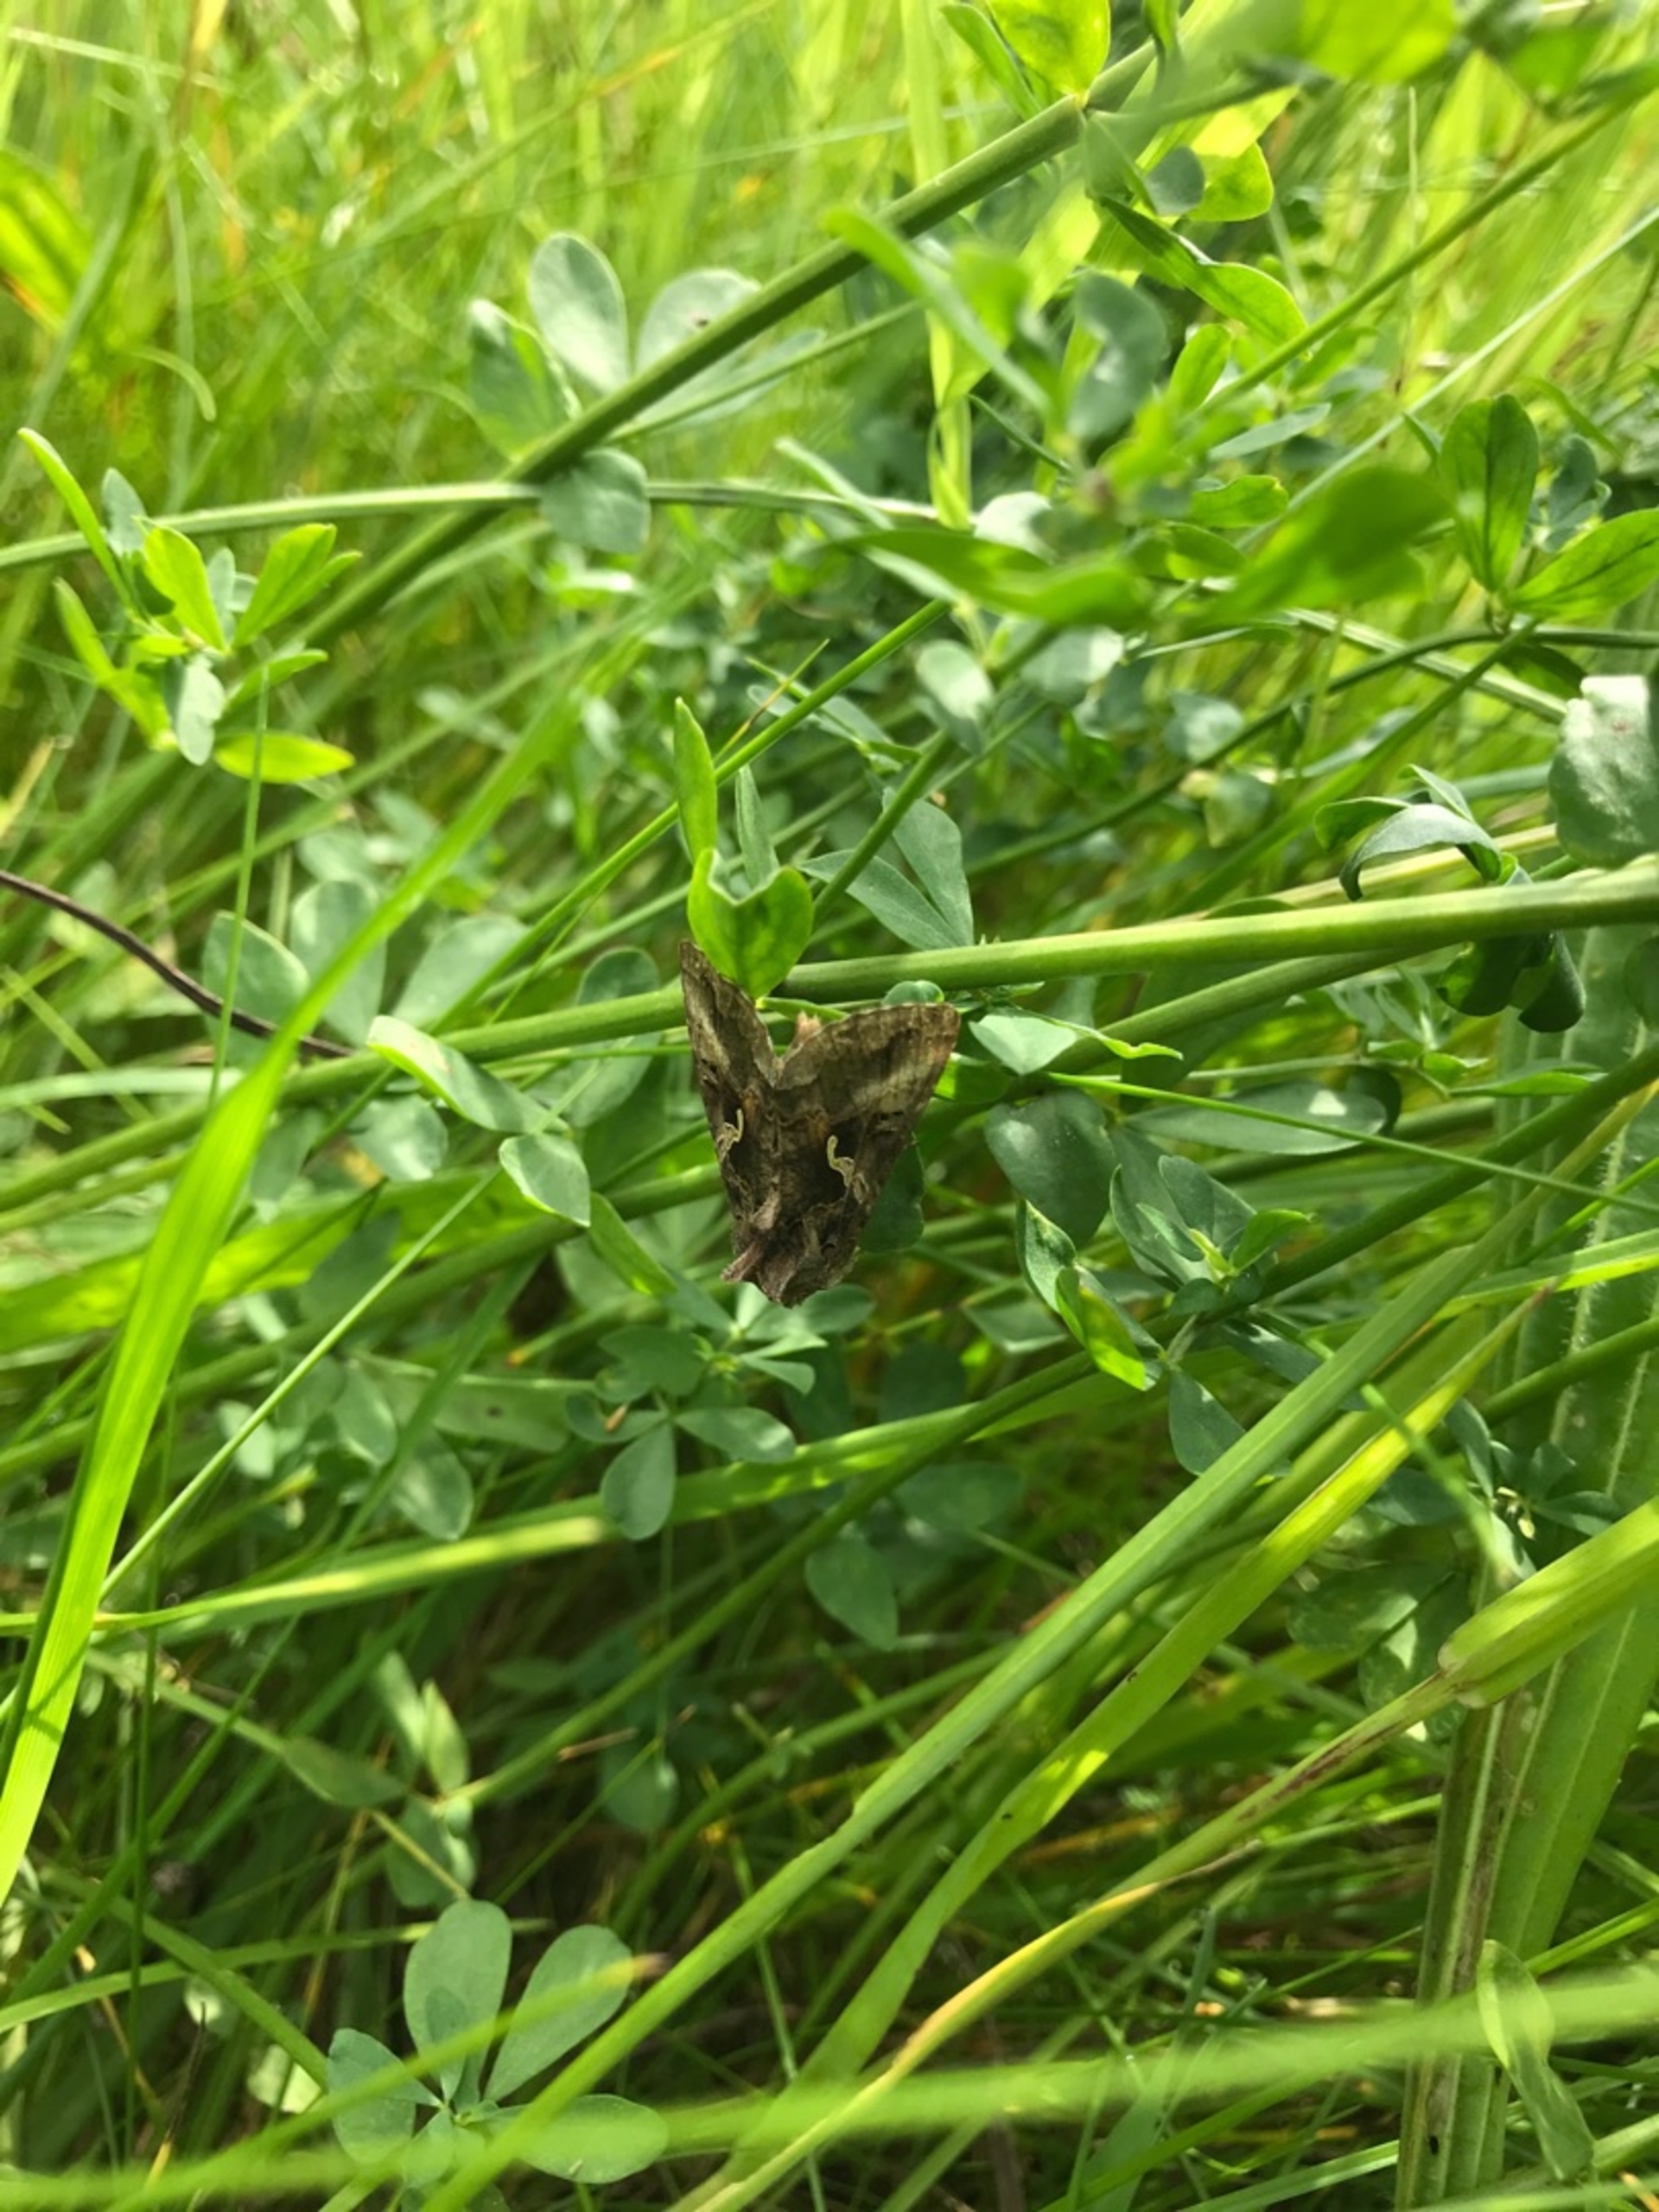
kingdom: Animalia
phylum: Arthropoda
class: Insecta
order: Lepidoptera
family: Noctuidae
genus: Autographa
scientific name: Autographa gamma
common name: Gammaugle
